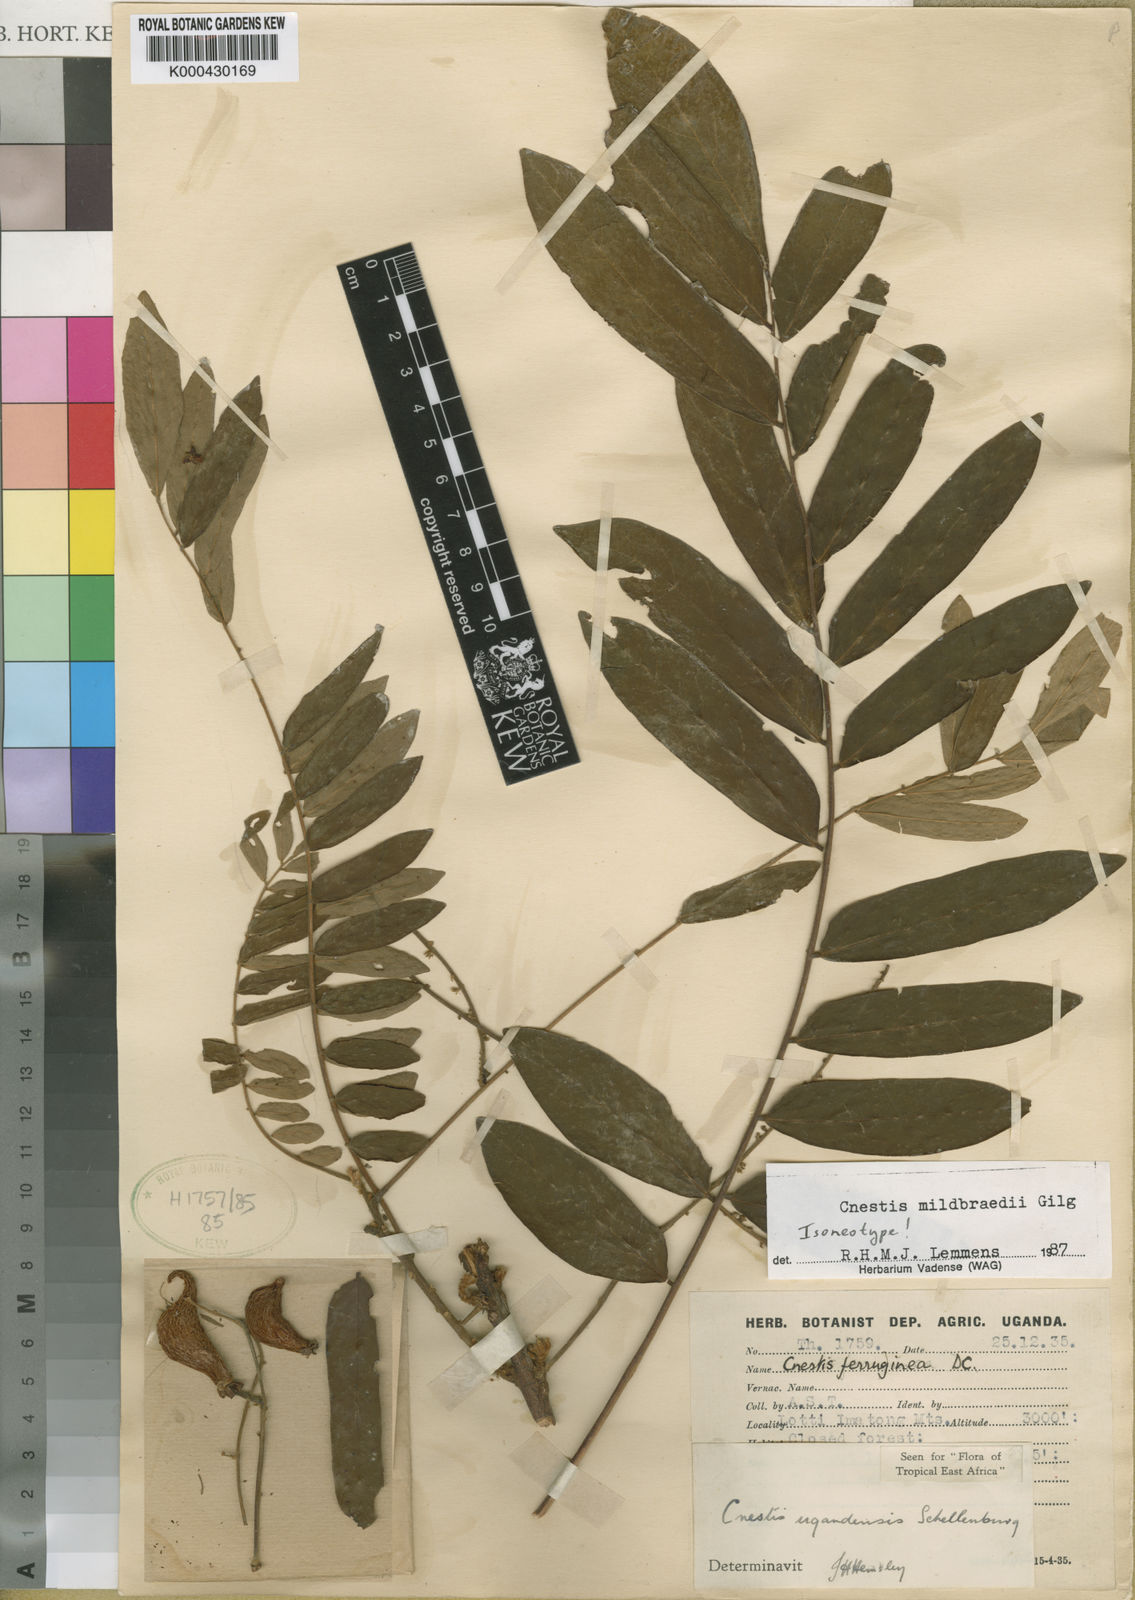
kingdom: Plantae
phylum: Tracheophyta
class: Magnoliopsida
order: Oxalidales
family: Connaraceae
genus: Cnestis
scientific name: Cnestis mildbraedii
